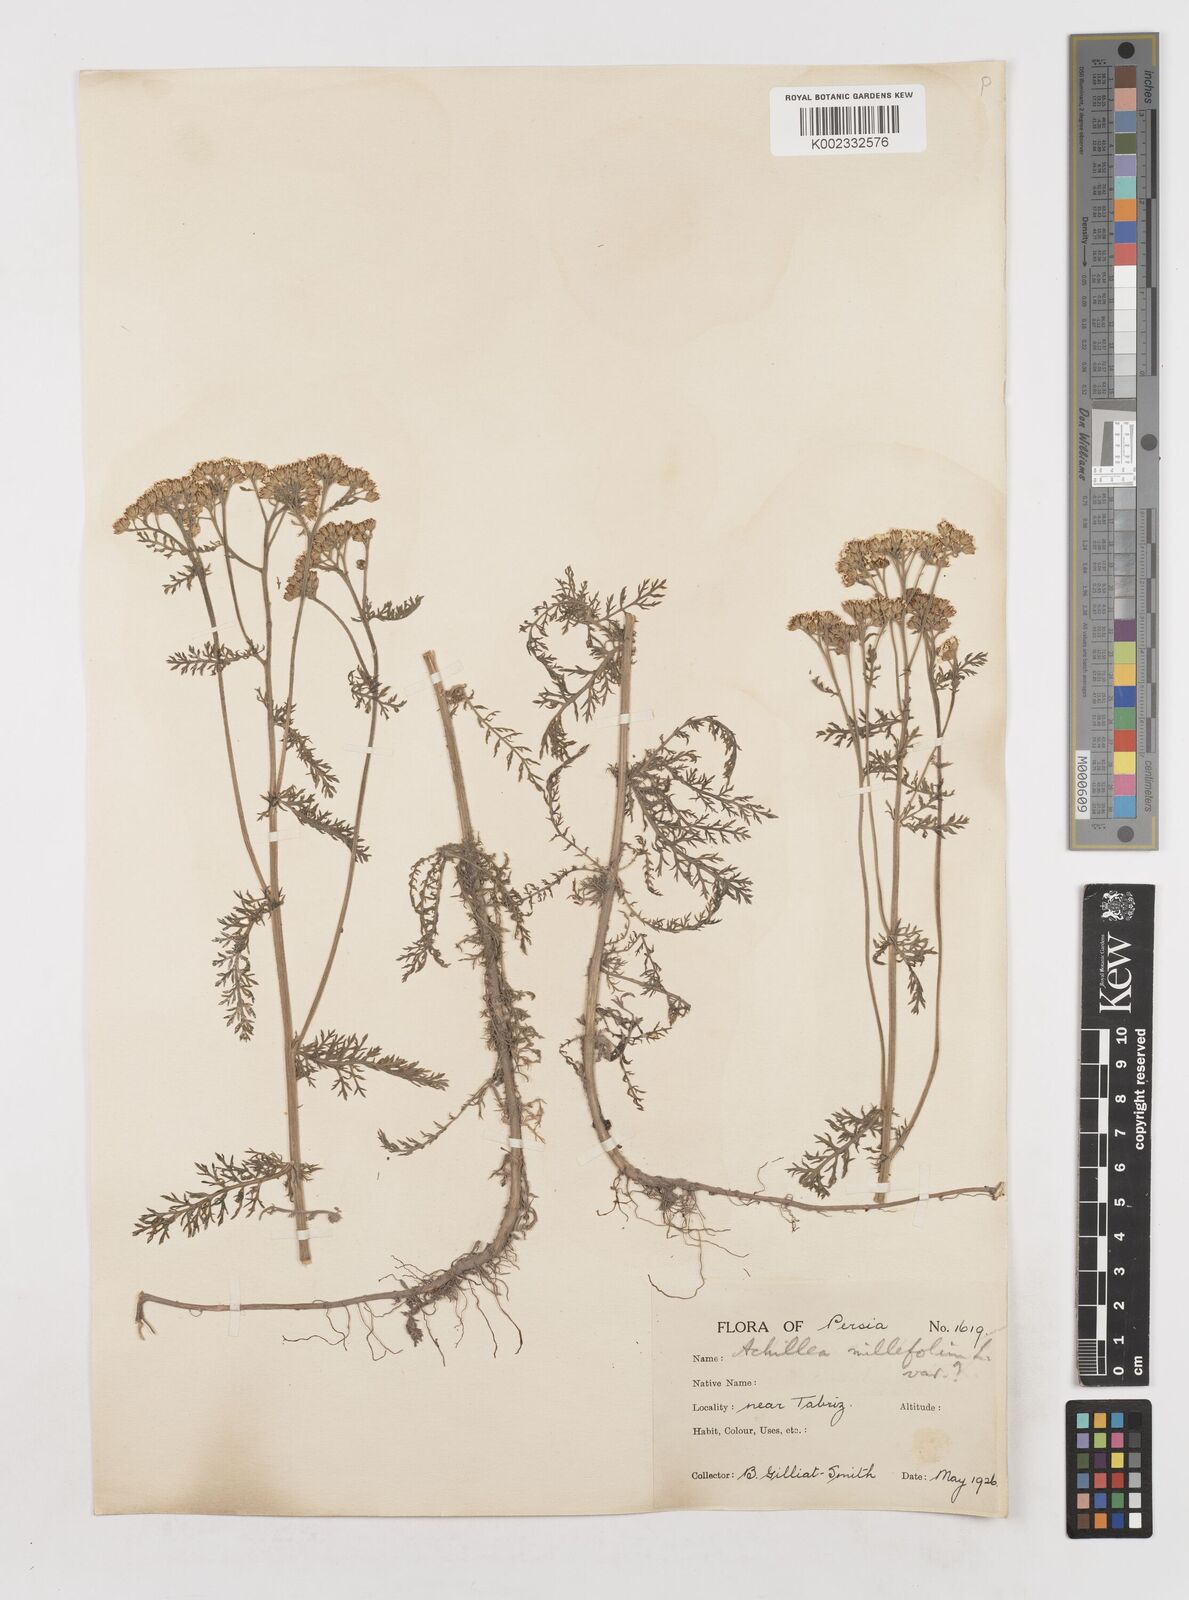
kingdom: Plantae
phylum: Tracheophyta
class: Magnoliopsida
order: Asterales
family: Asteraceae
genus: Achillea
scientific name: Achillea millefolium
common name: Yarrow
